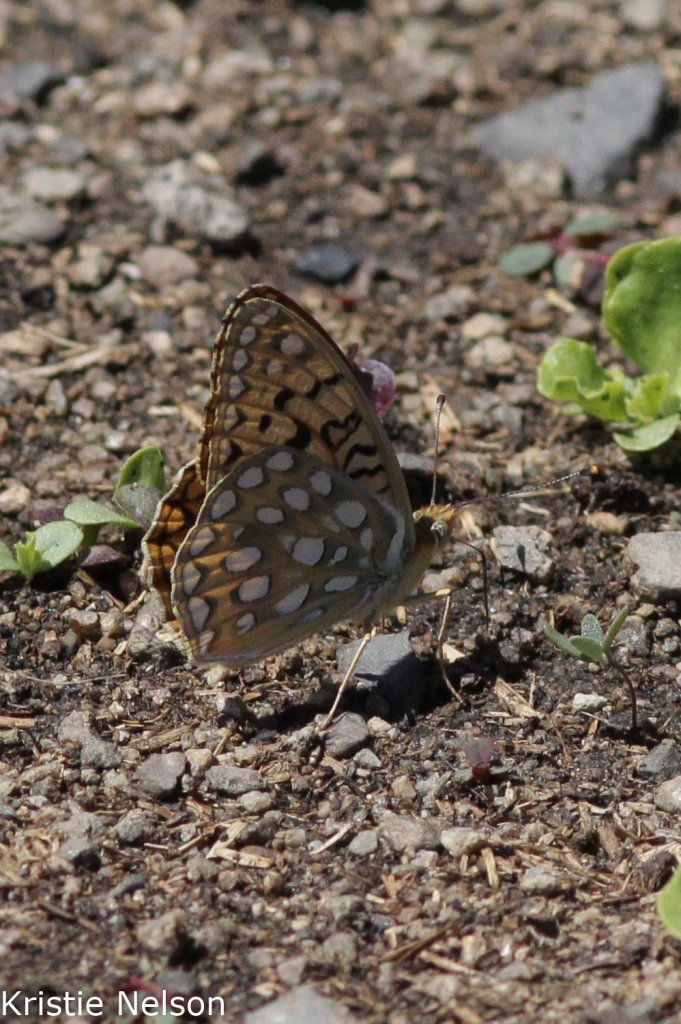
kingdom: Animalia
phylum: Arthropoda
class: Insecta
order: Lepidoptera
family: Nymphalidae
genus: Speyeria
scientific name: Speyeria callippe
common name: Callippe Fritillary
